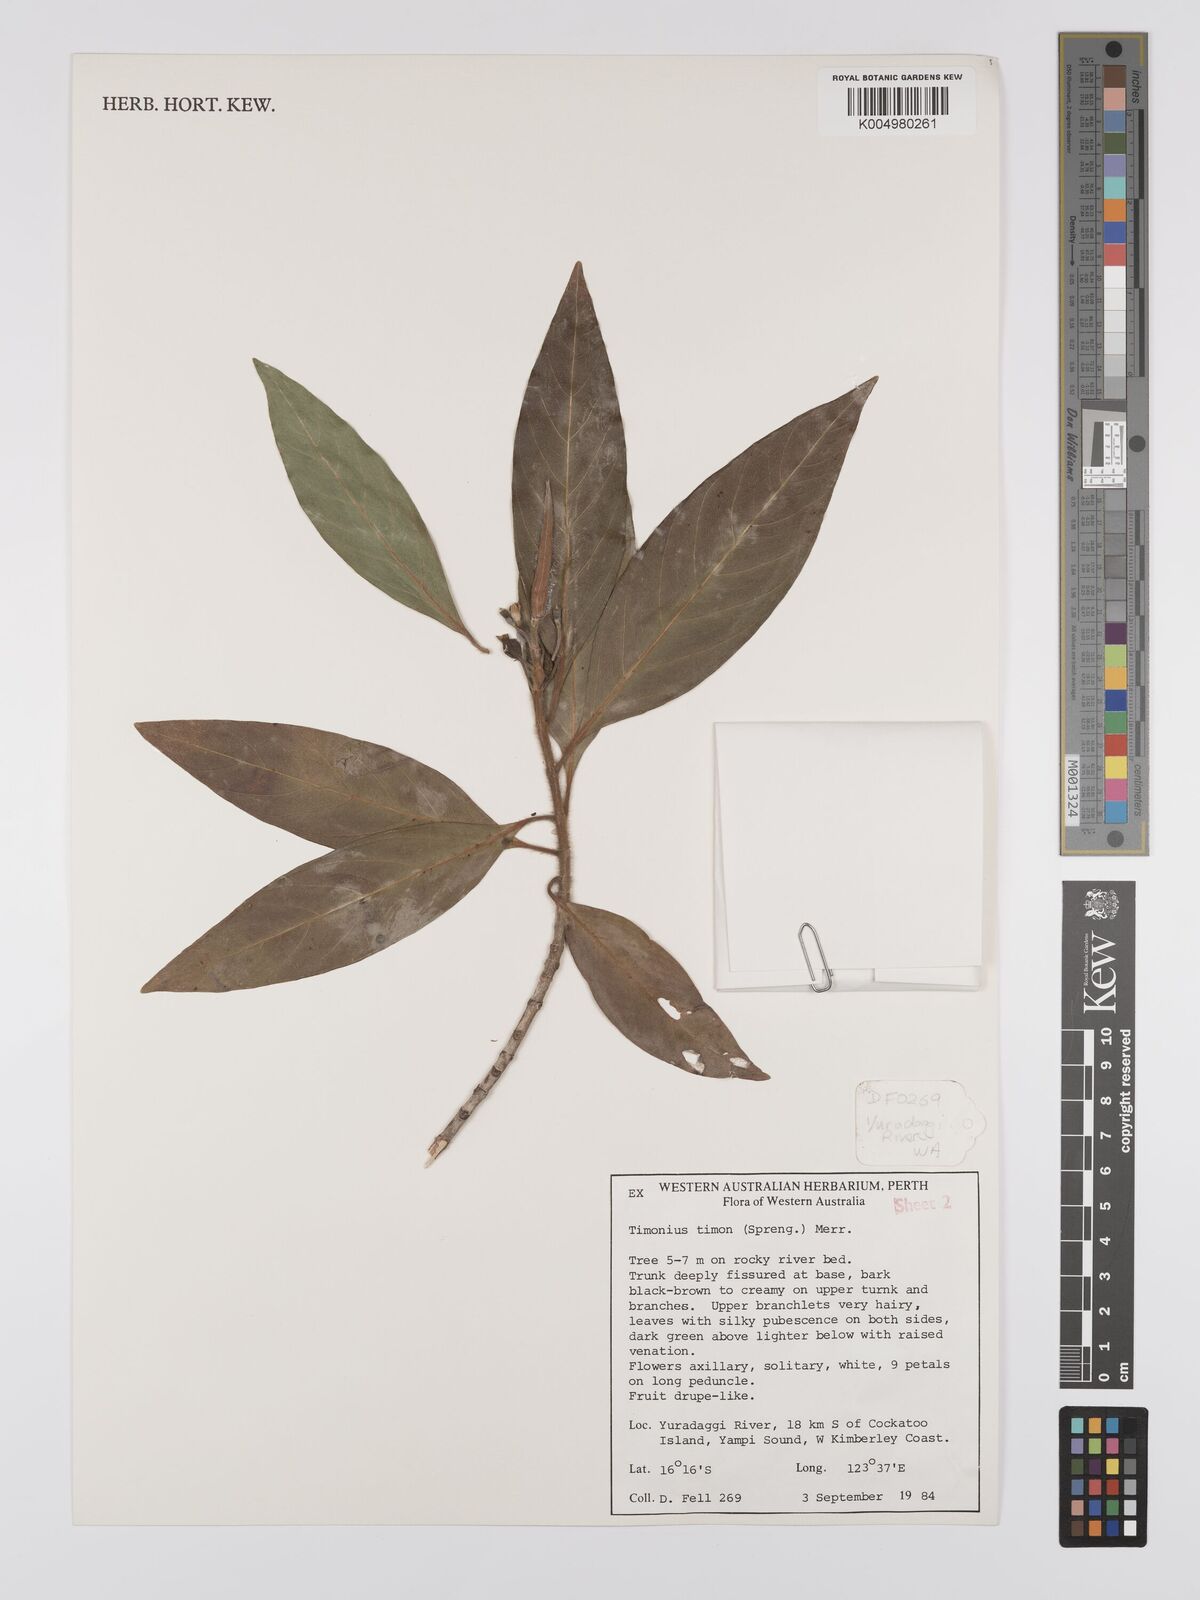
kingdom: Plantae
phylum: Tracheophyta
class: Magnoliopsida
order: Gentianales
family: Rubiaceae
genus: Timonius
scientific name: Timonius timon
